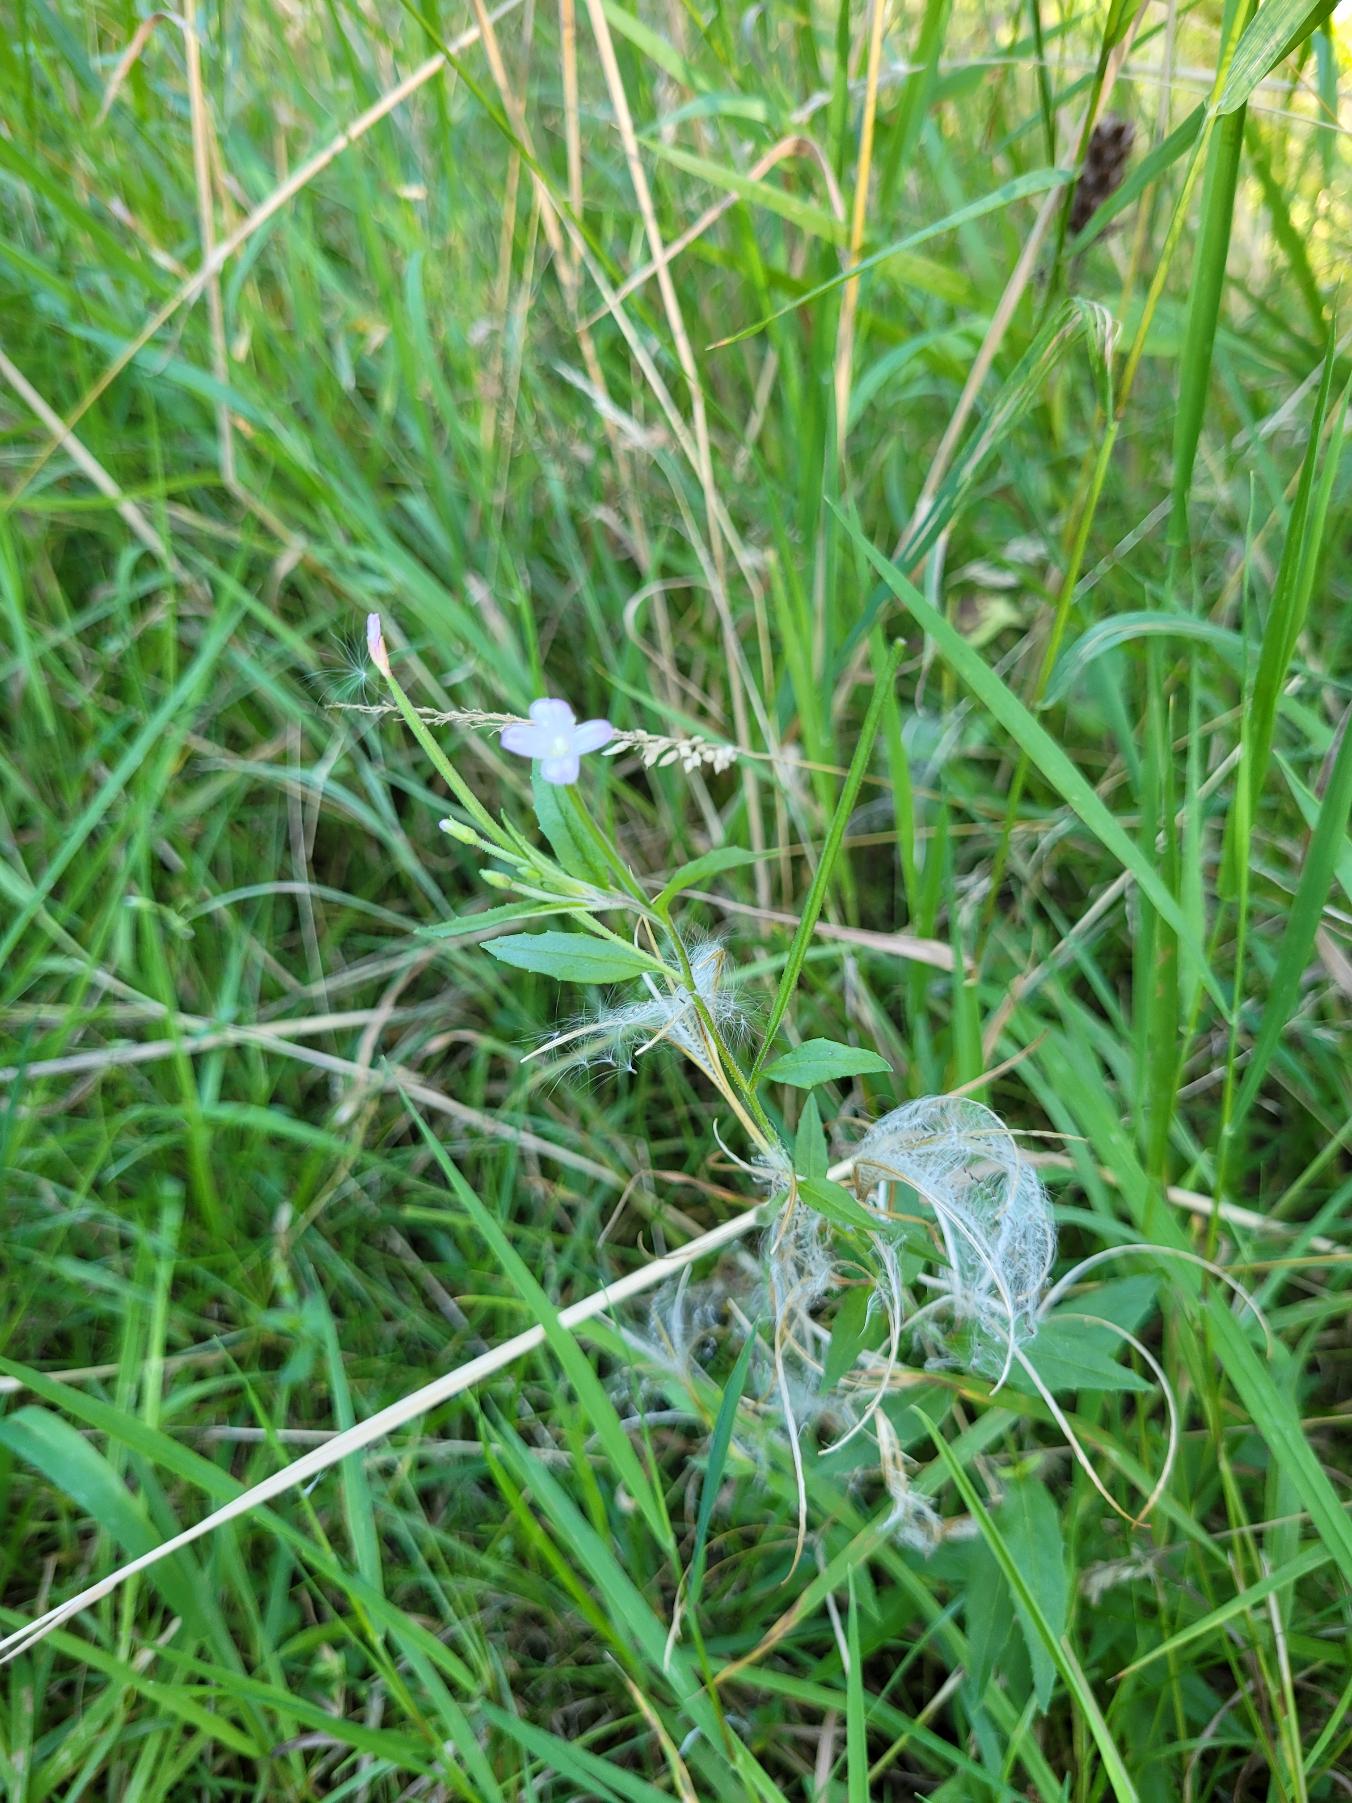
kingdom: Plantae
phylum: Tracheophyta
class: Magnoliopsida
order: Myrtales
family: Onagraceae
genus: Epilobium
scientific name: Epilobium ciliatum
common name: Kirtlet dueurt
